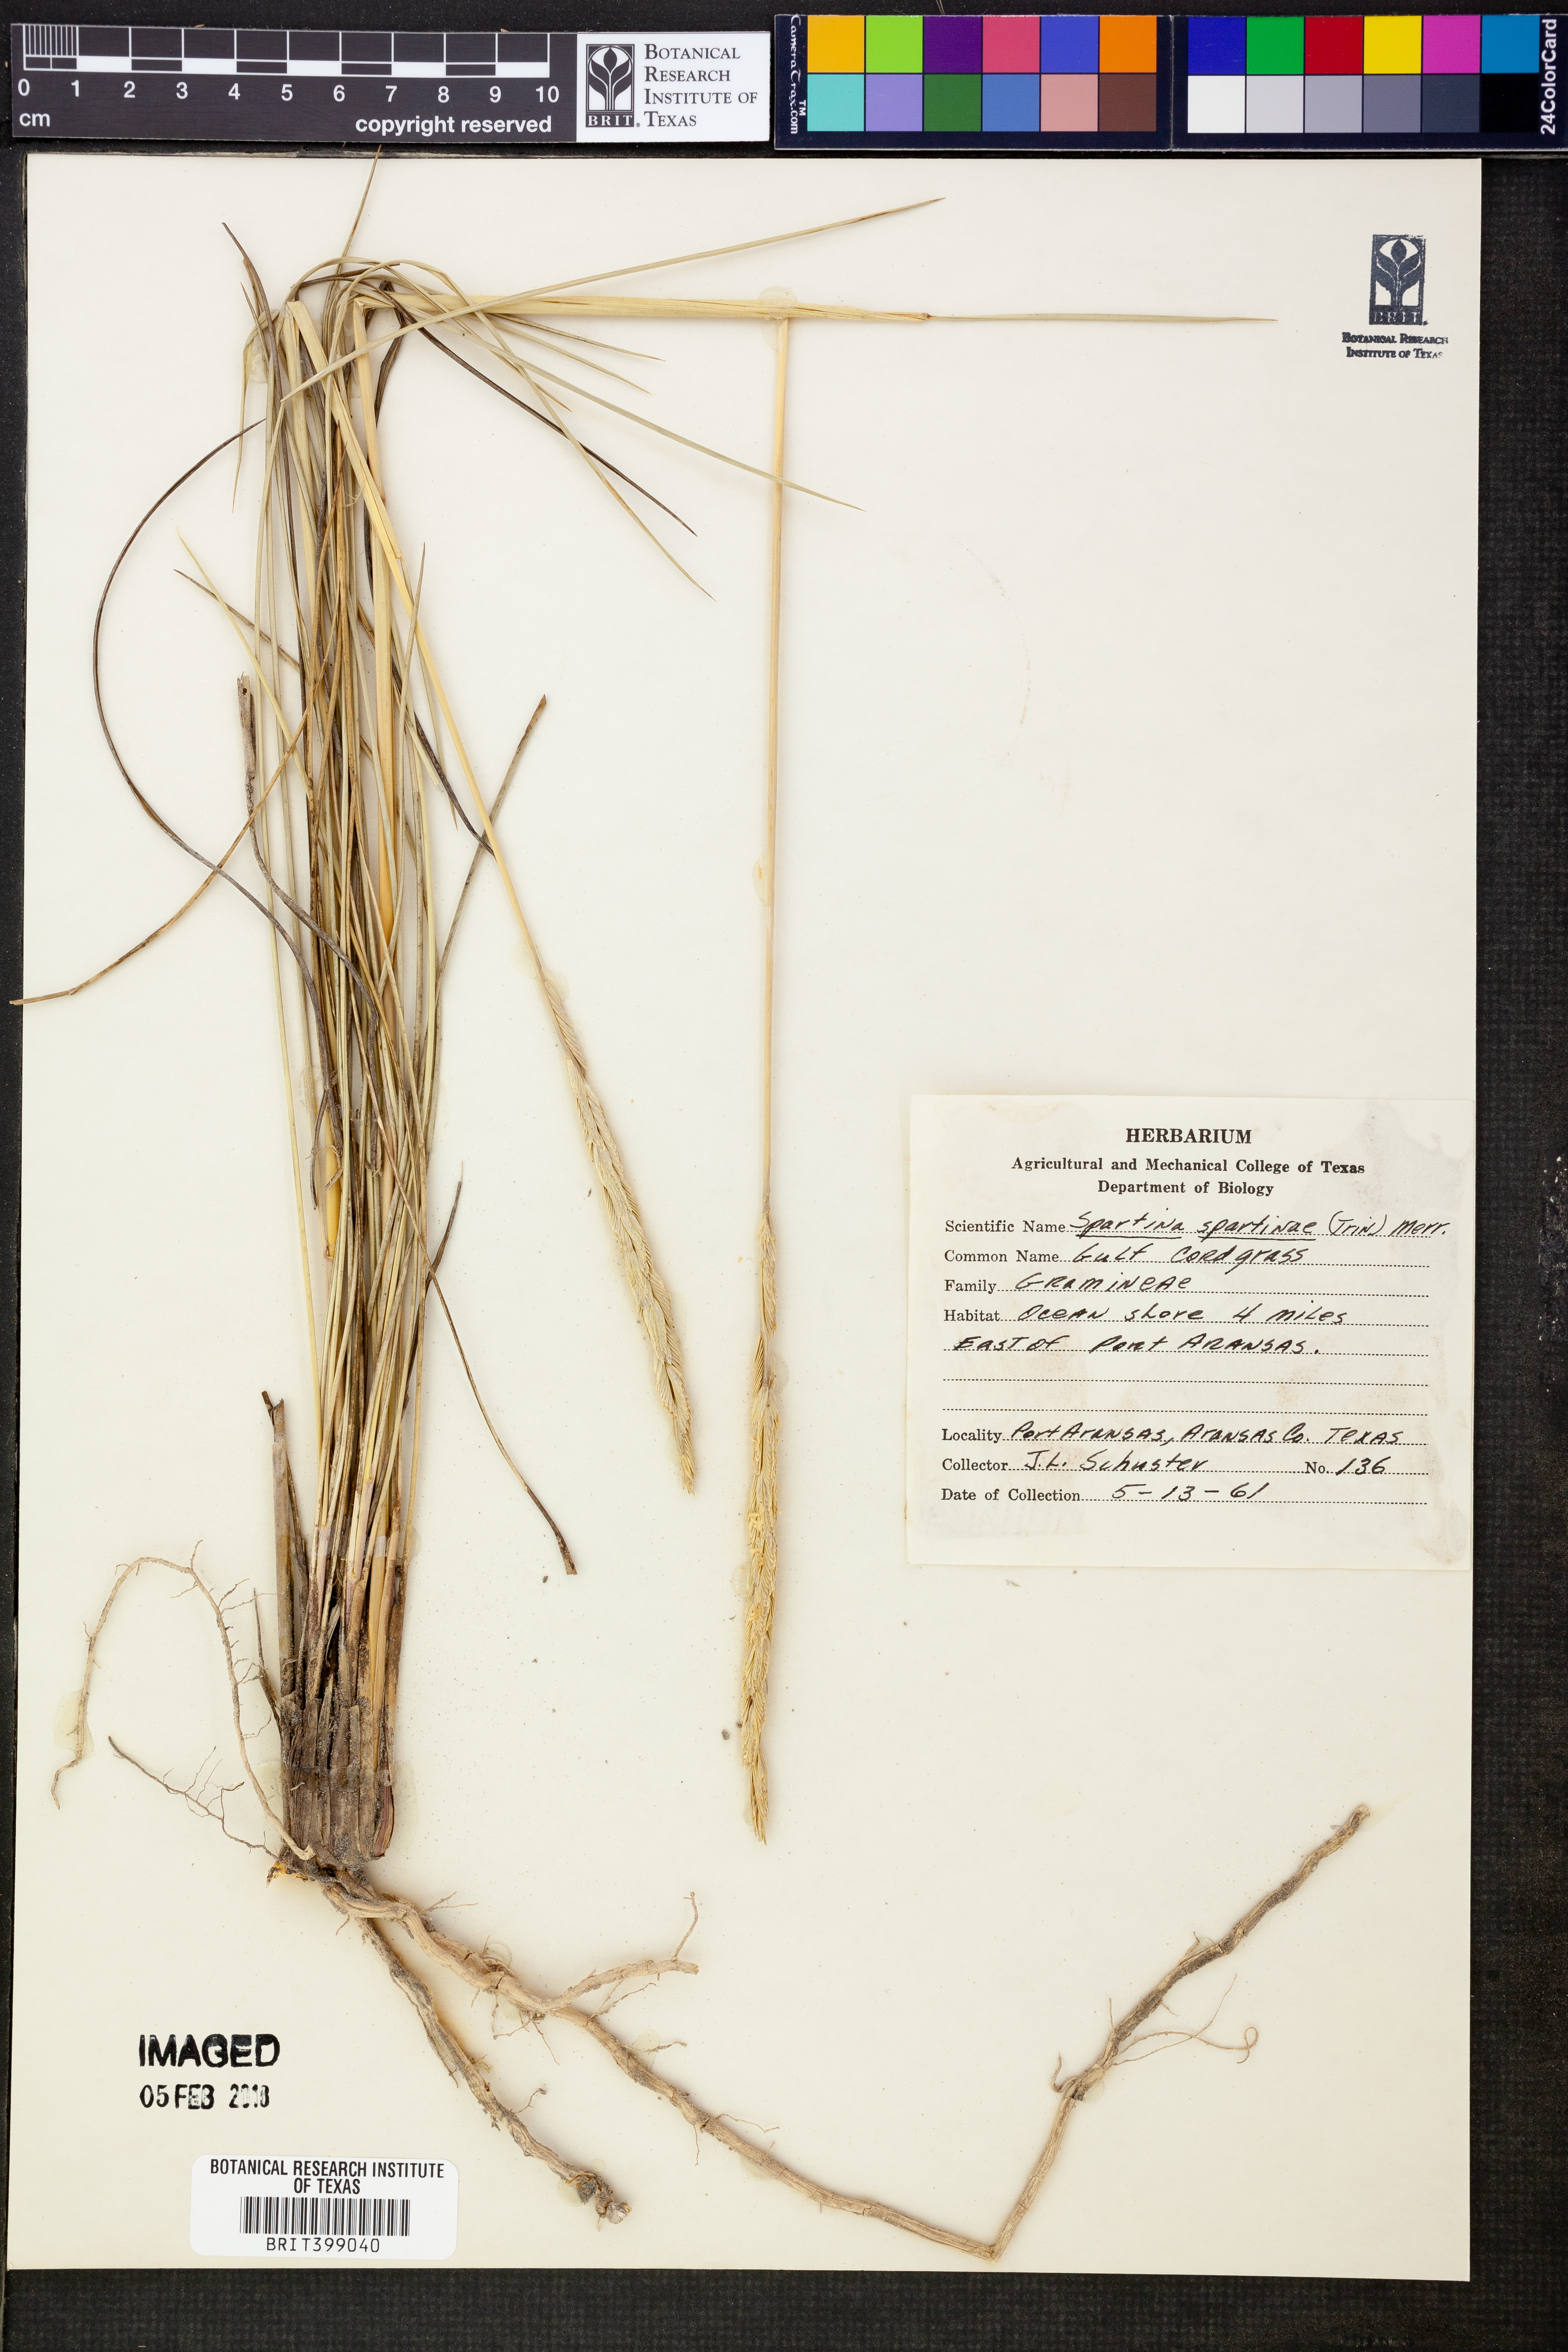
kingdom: Plantae
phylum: Tracheophyta
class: Liliopsida
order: Poales
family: Poaceae
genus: Sporobolus
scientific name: Sporobolus spartinae
